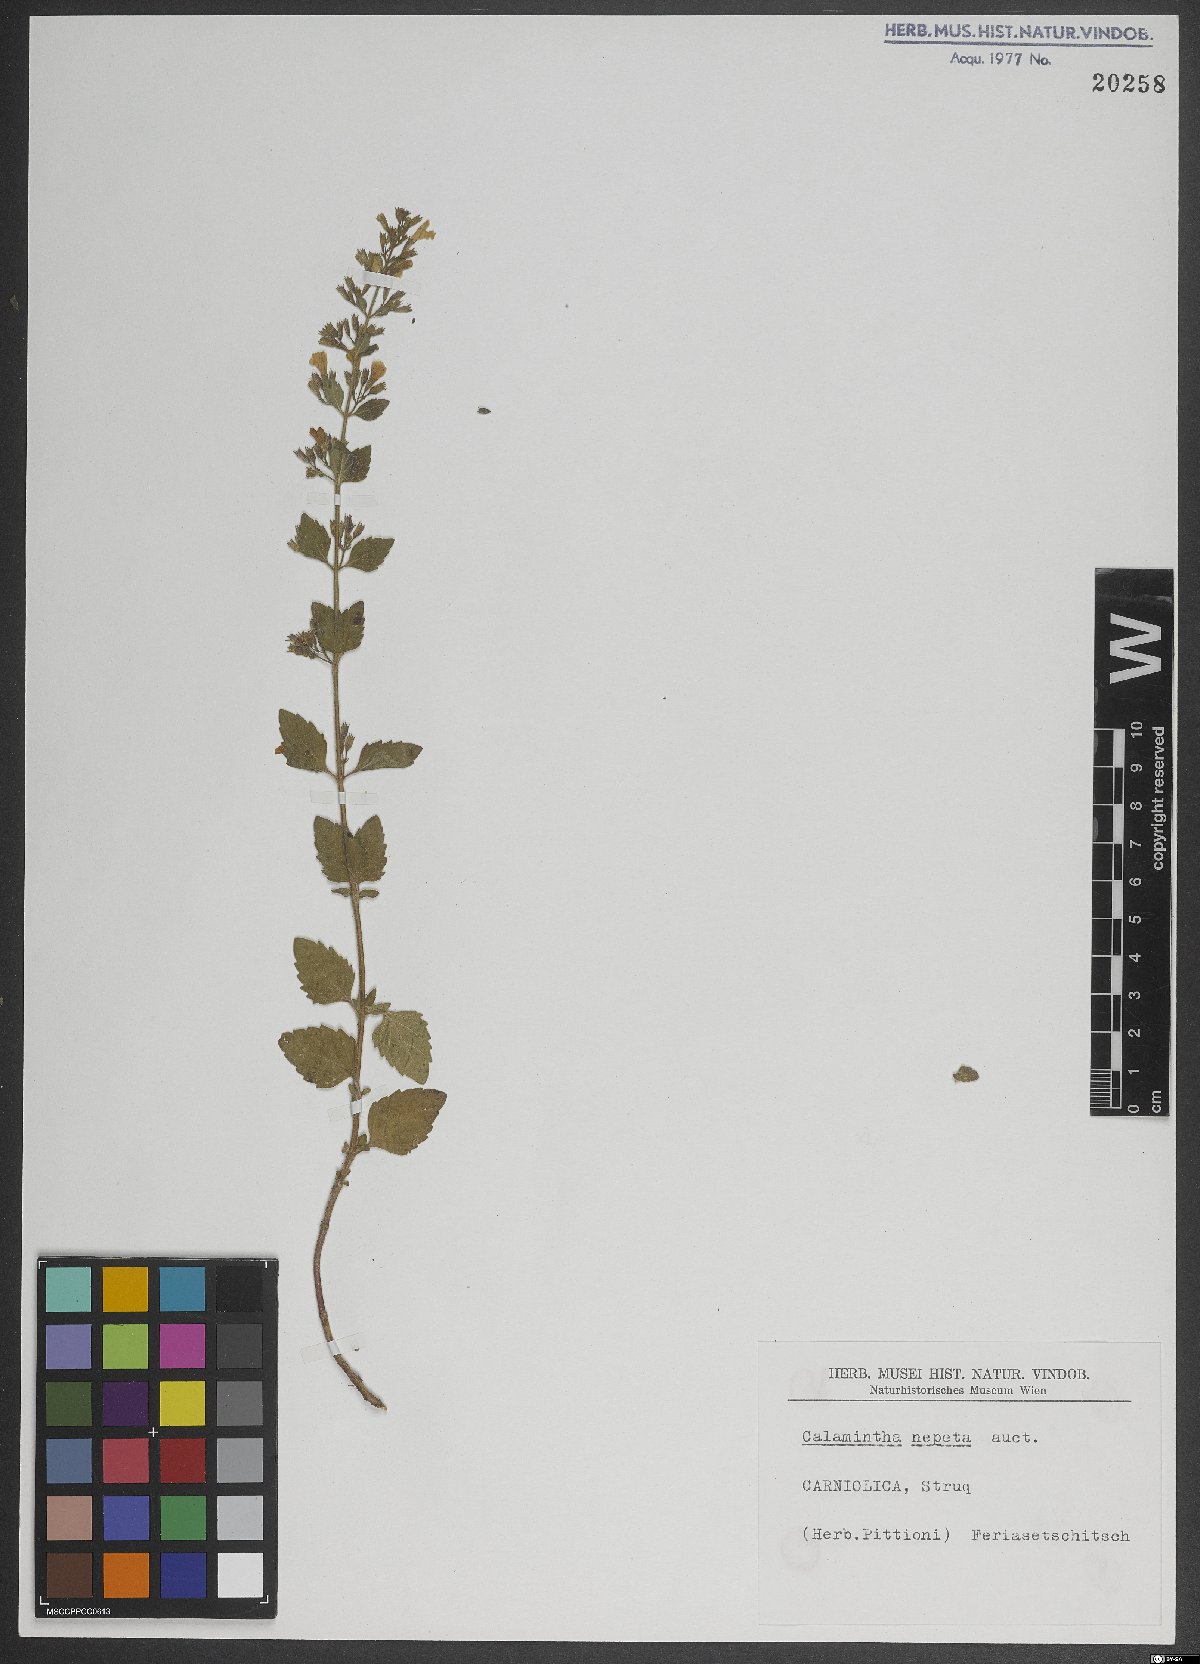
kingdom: Plantae
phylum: Tracheophyta
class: Magnoliopsida
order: Lamiales
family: Lamiaceae
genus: Clinopodium
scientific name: Clinopodium nepeta
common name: Lesser calamint
